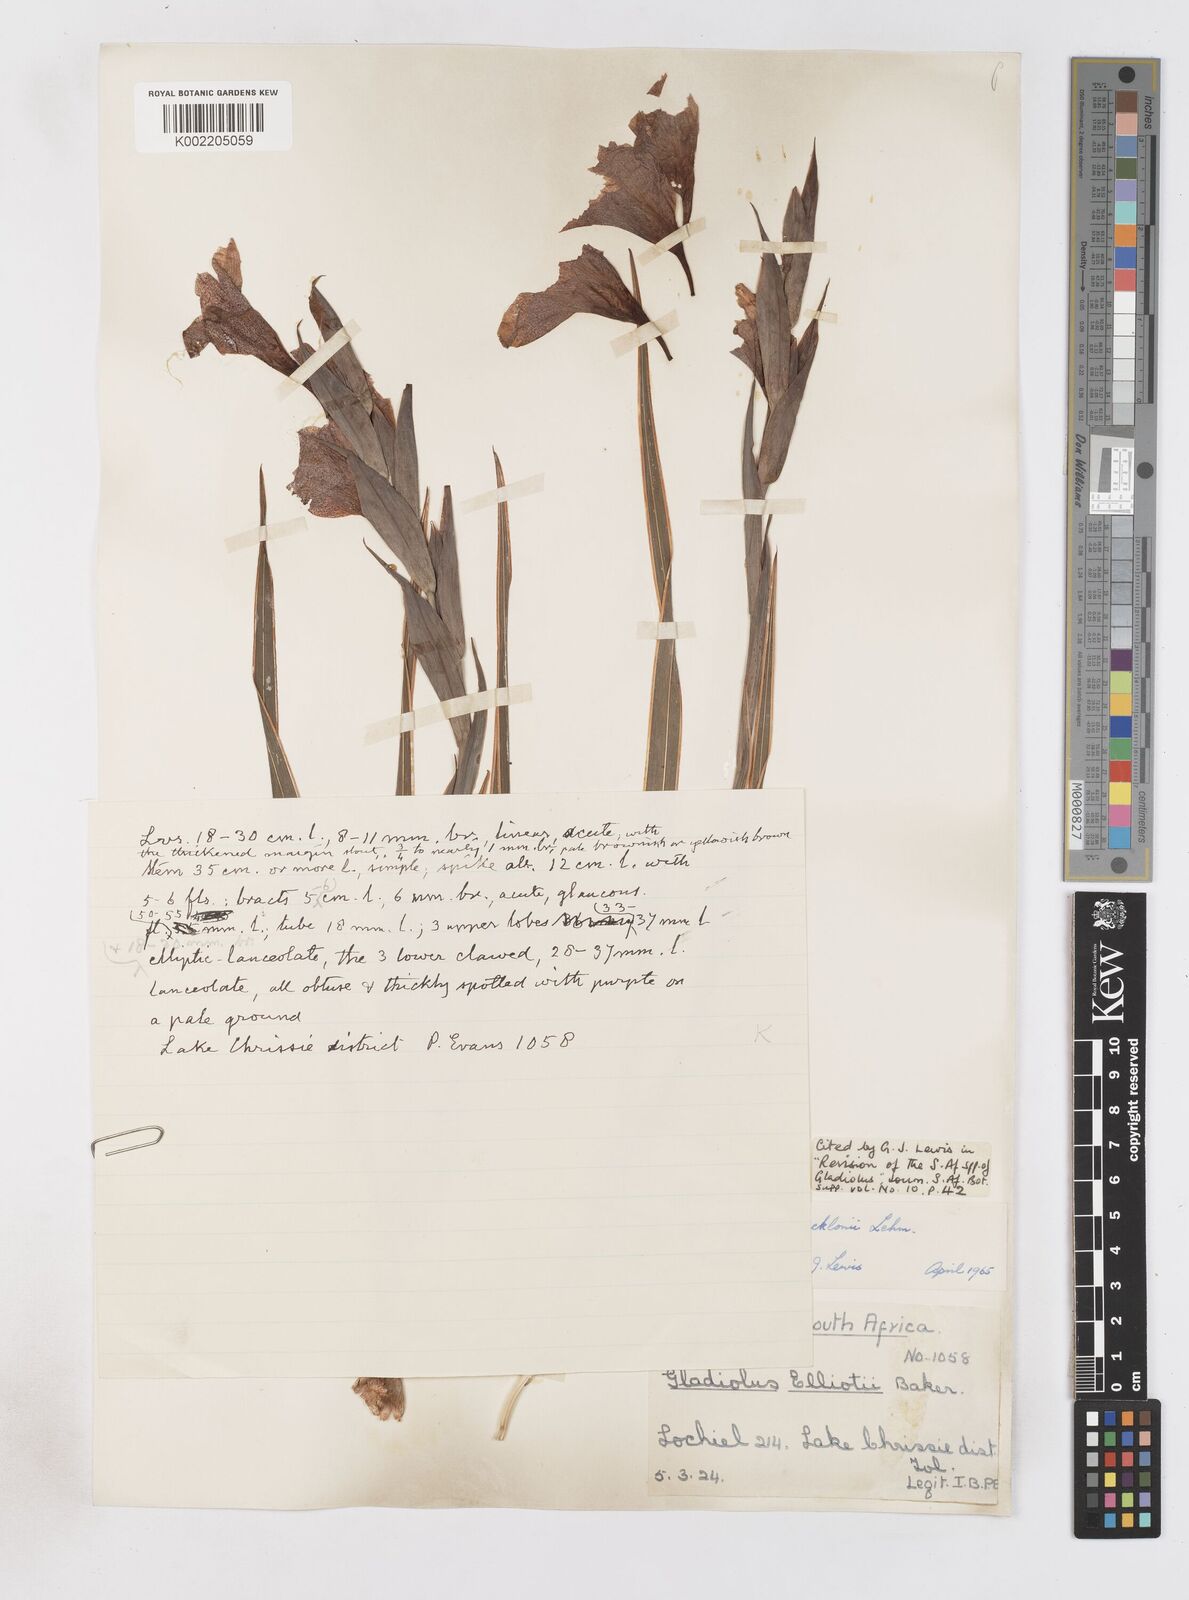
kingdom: Plantae
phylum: Tracheophyta
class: Liliopsida
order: Asparagales
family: Iridaceae
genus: Gladiolus
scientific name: Gladiolus ecklonii
